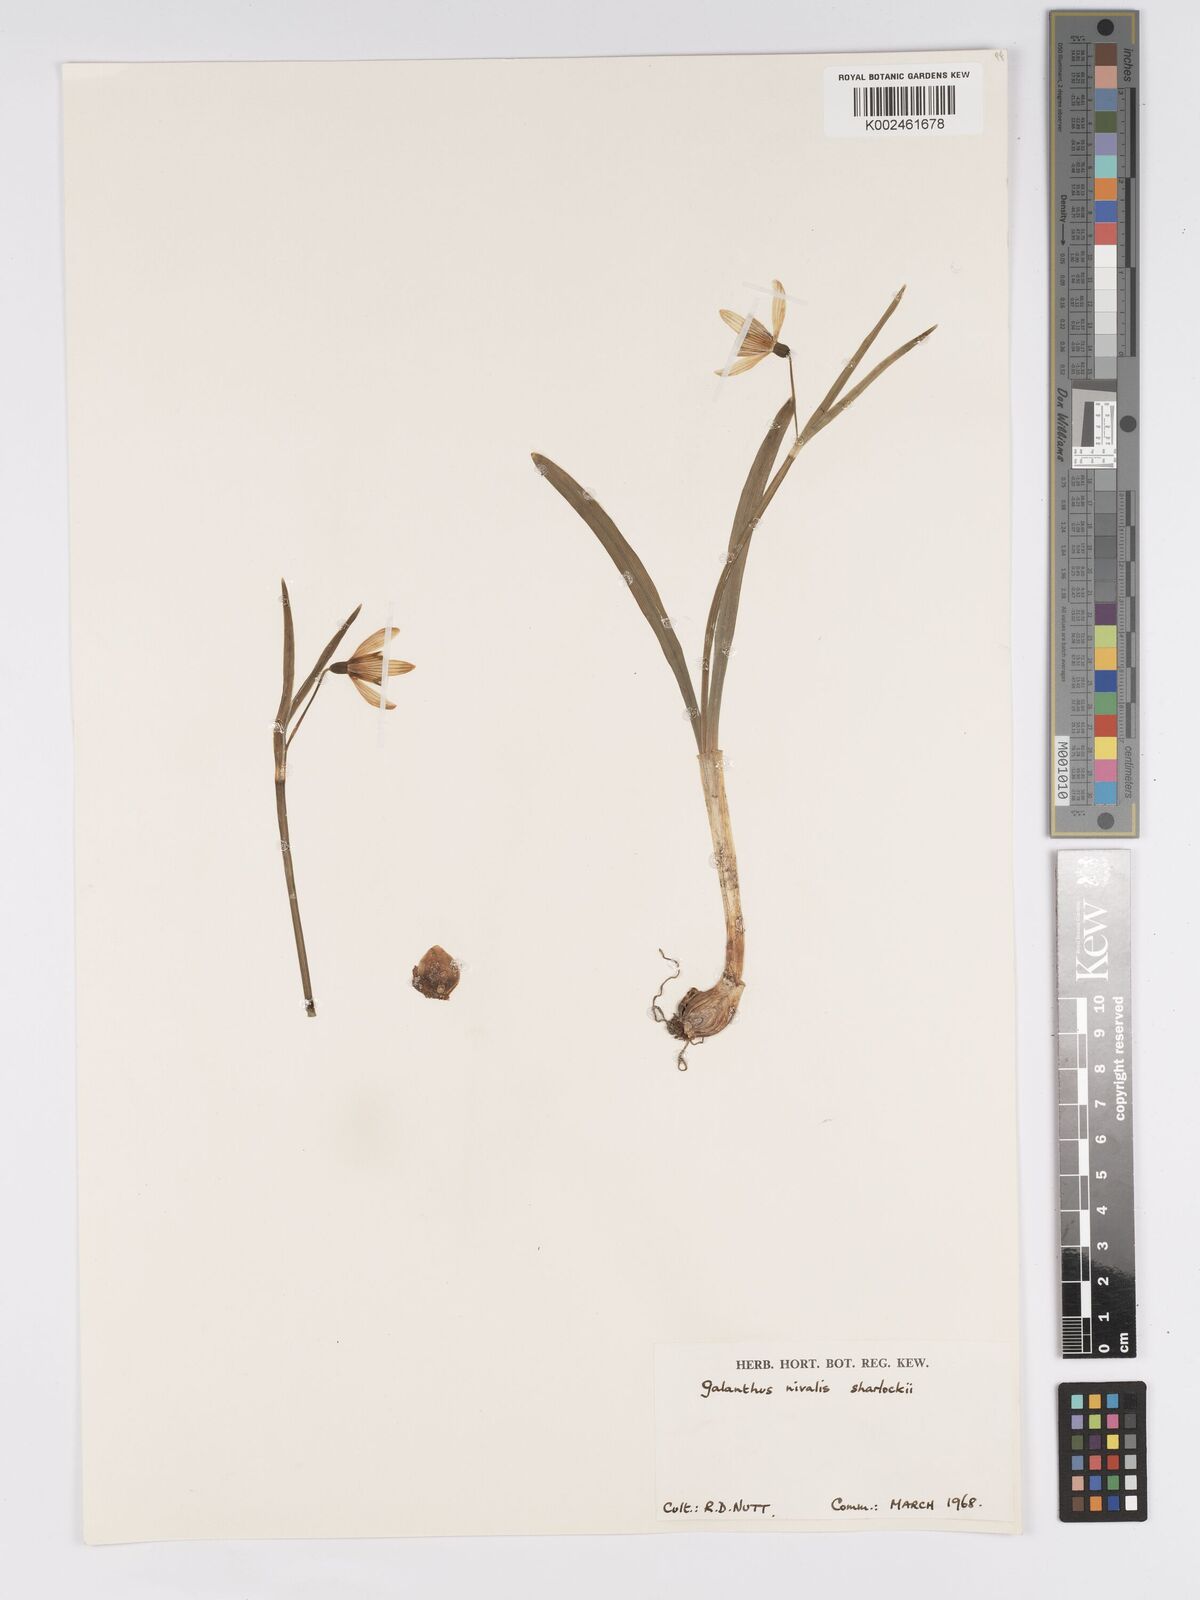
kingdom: Plantae
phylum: Tracheophyta
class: Liliopsida
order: Asparagales
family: Amaryllidaceae
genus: Galanthus
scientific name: Galanthus nivalis
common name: Snowdrop
